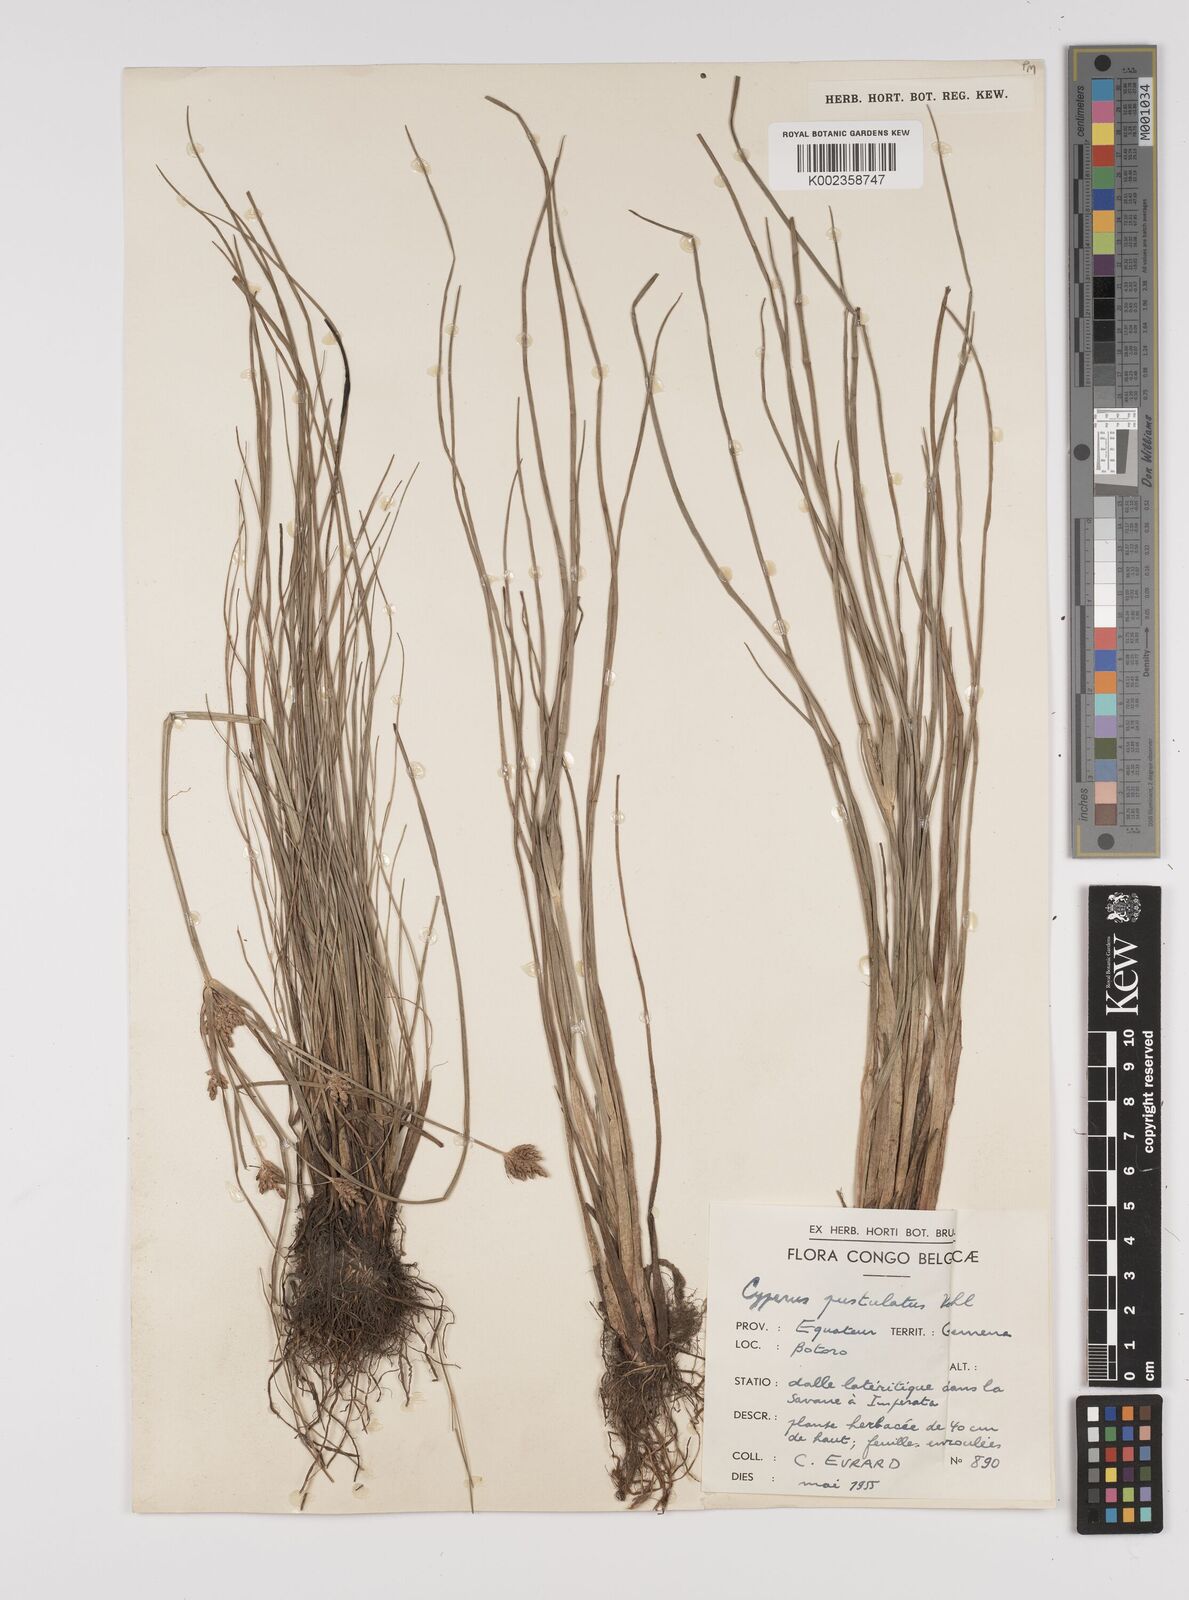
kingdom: Plantae
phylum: Tracheophyta
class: Liliopsida
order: Poales
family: Cyperaceae
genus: Cyperus
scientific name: Cyperus pustulatus
